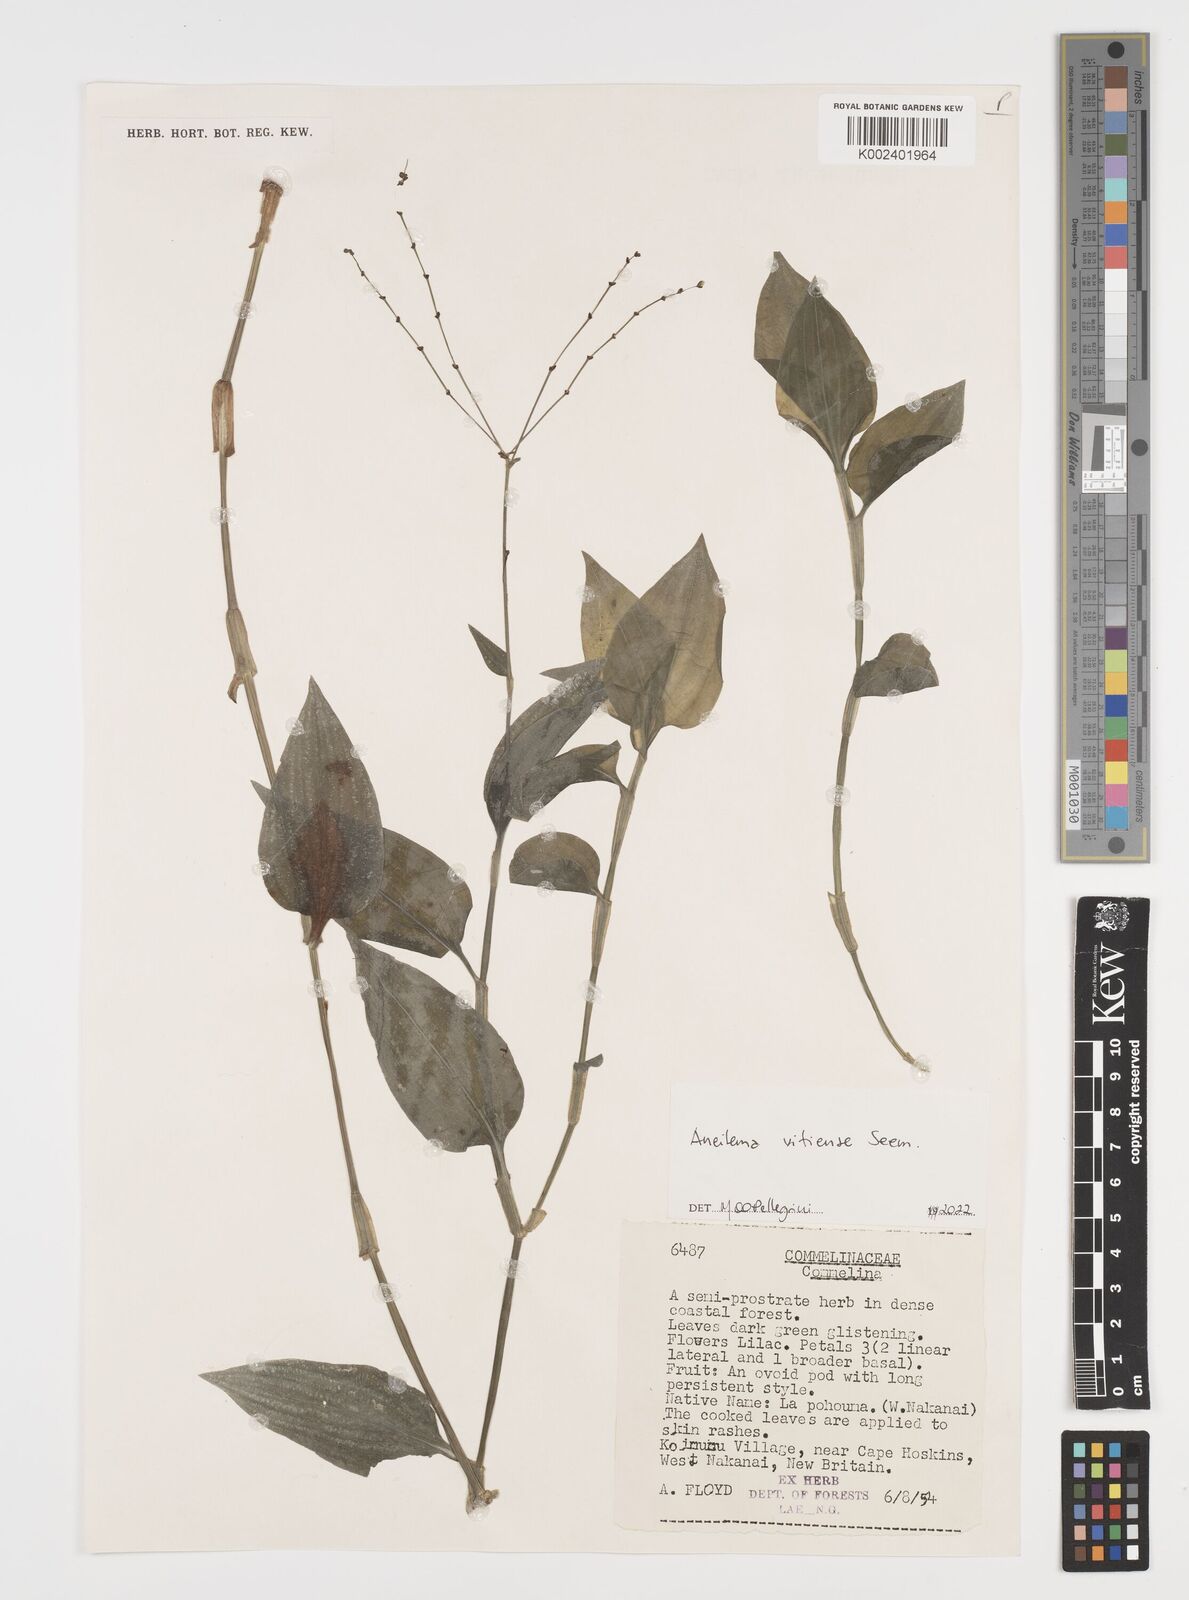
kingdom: Plantae
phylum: Tracheophyta
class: Liliopsida
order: Commelinales
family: Commelinaceae
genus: Rhopalephora
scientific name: Rhopalephora vitiensis
